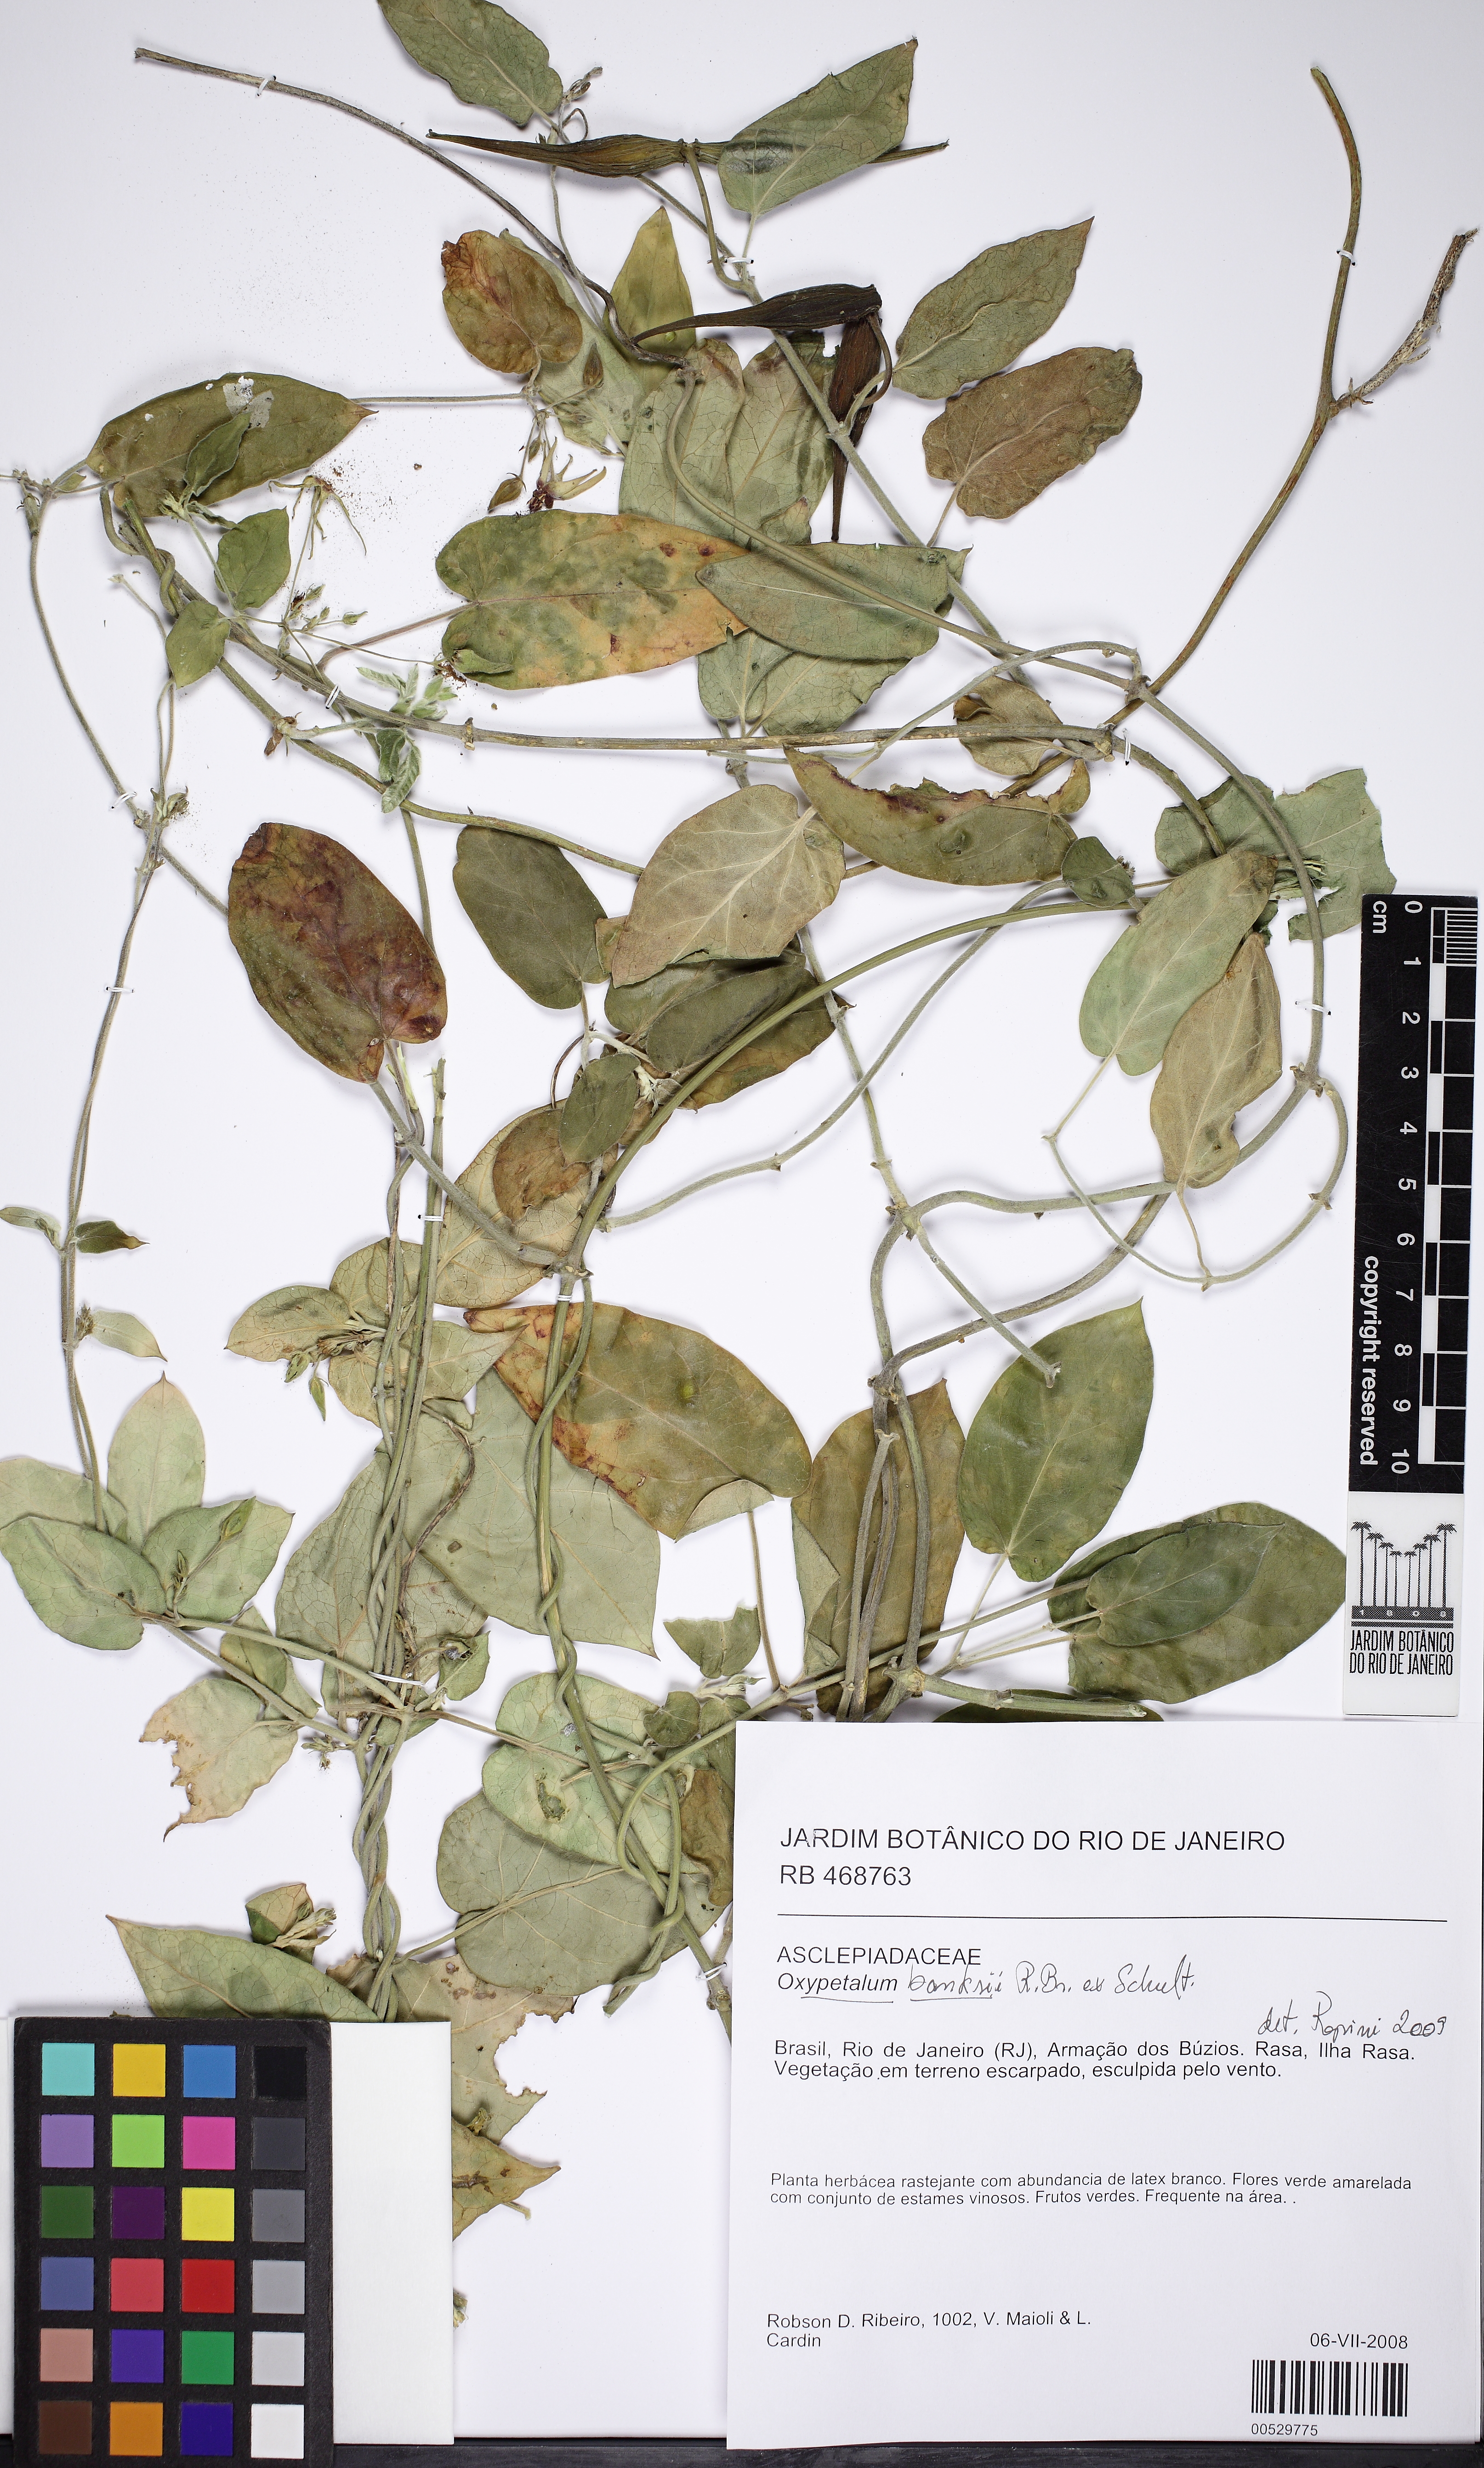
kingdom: Plantae
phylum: Tracheophyta
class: Magnoliopsida
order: Gentianales
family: Apocynaceae
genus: Oxypetalum
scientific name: Oxypetalum banksii
